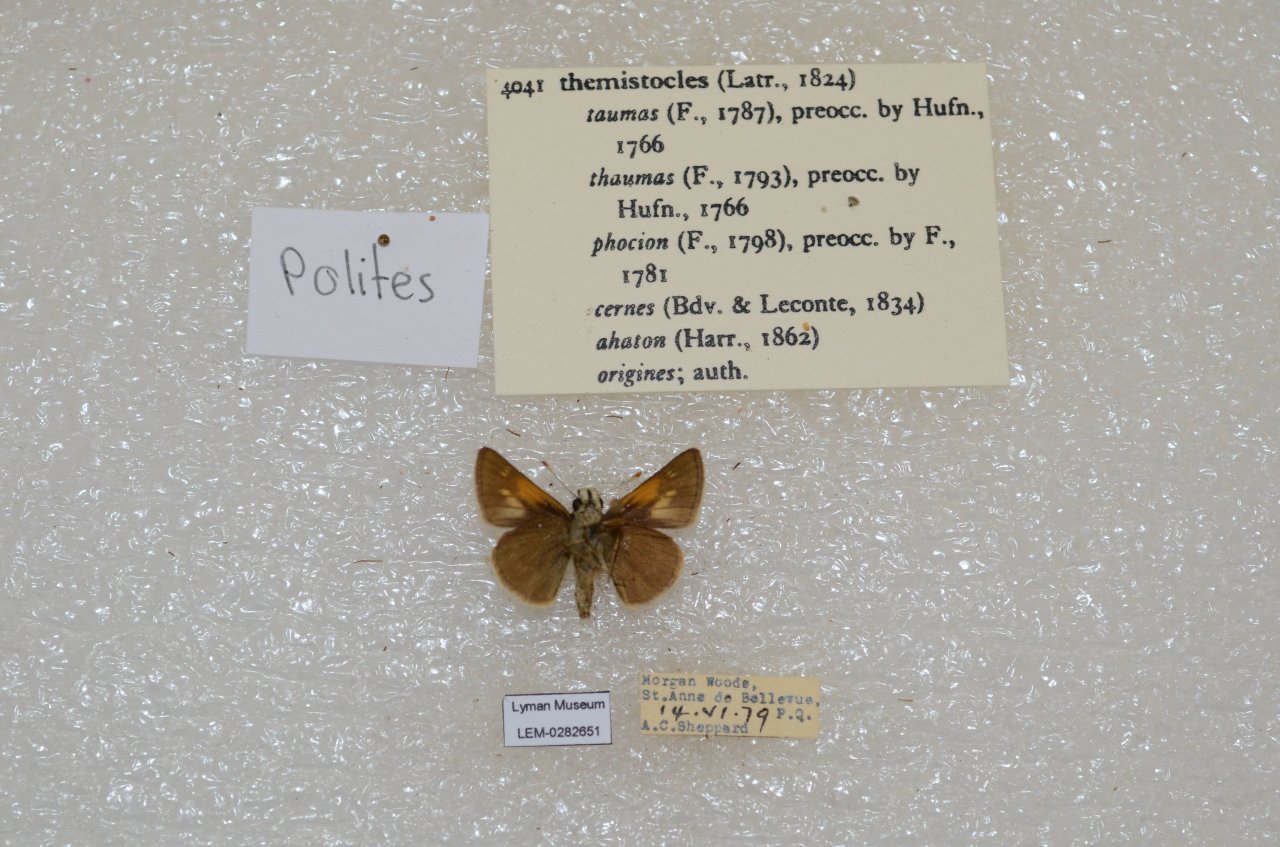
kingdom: Animalia
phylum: Arthropoda
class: Insecta
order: Lepidoptera
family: Hesperiidae
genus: Polites
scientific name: Polites themistocles
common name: Tawny-edged Skipper
